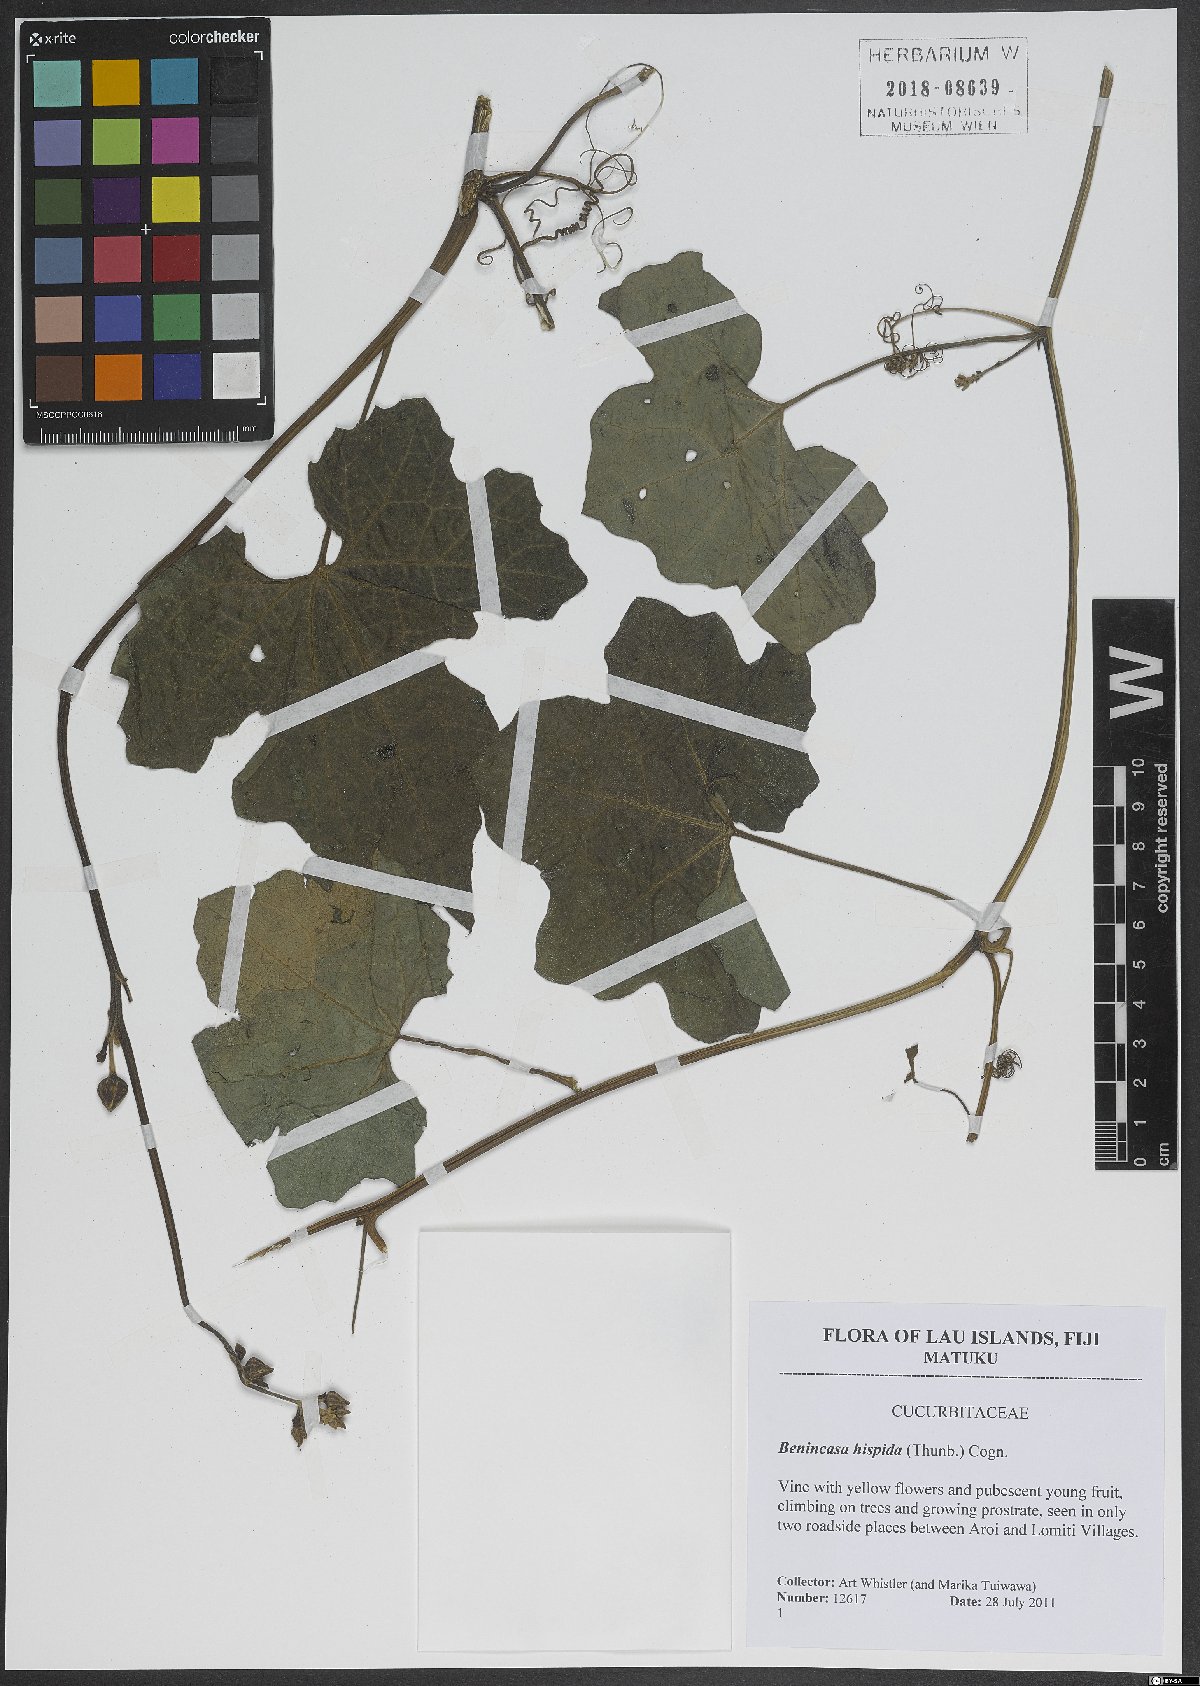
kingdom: Plantae
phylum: Tracheophyta
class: Magnoliopsida
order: Cucurbitales
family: Cucurbitaceae
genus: Benincasa
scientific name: Benincasa hispida
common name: Chinese-watermelon
